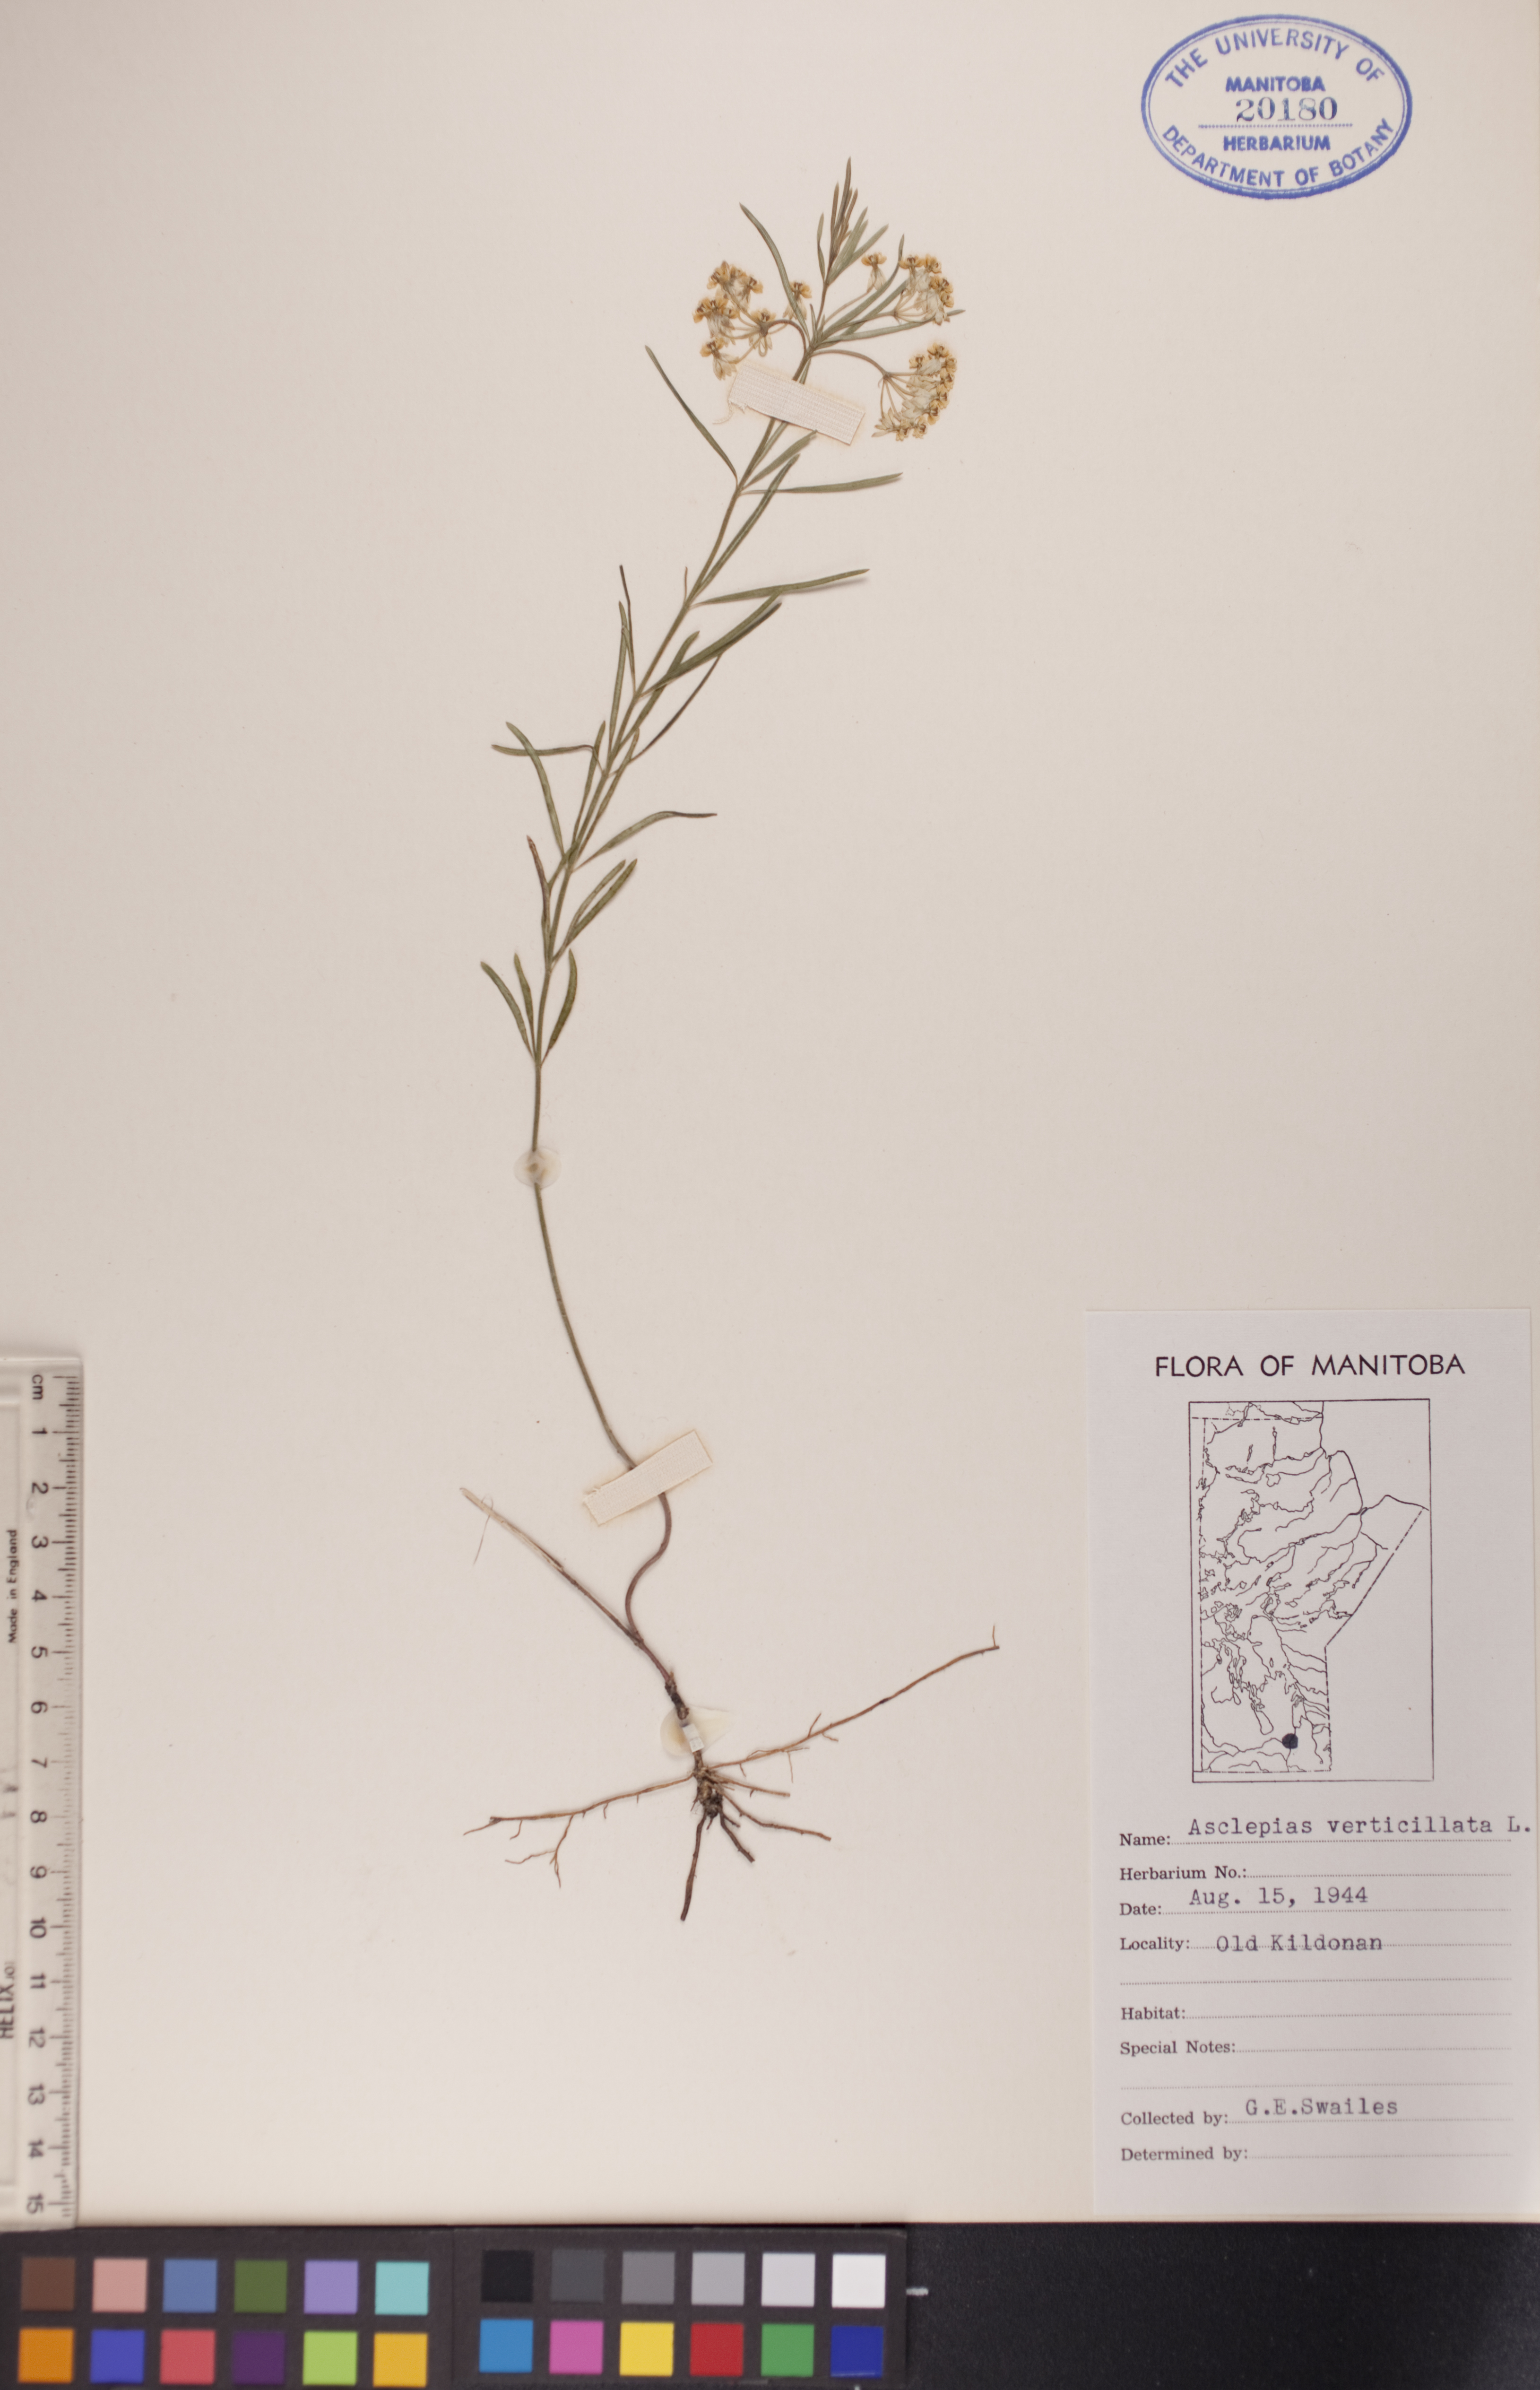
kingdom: Plantae
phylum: Tracheophyta
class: Magnoliopsida
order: Gentianales
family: Apocynaceae
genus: Asclepias
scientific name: Asclepias verticillata
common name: Eastern whorled milkweed
